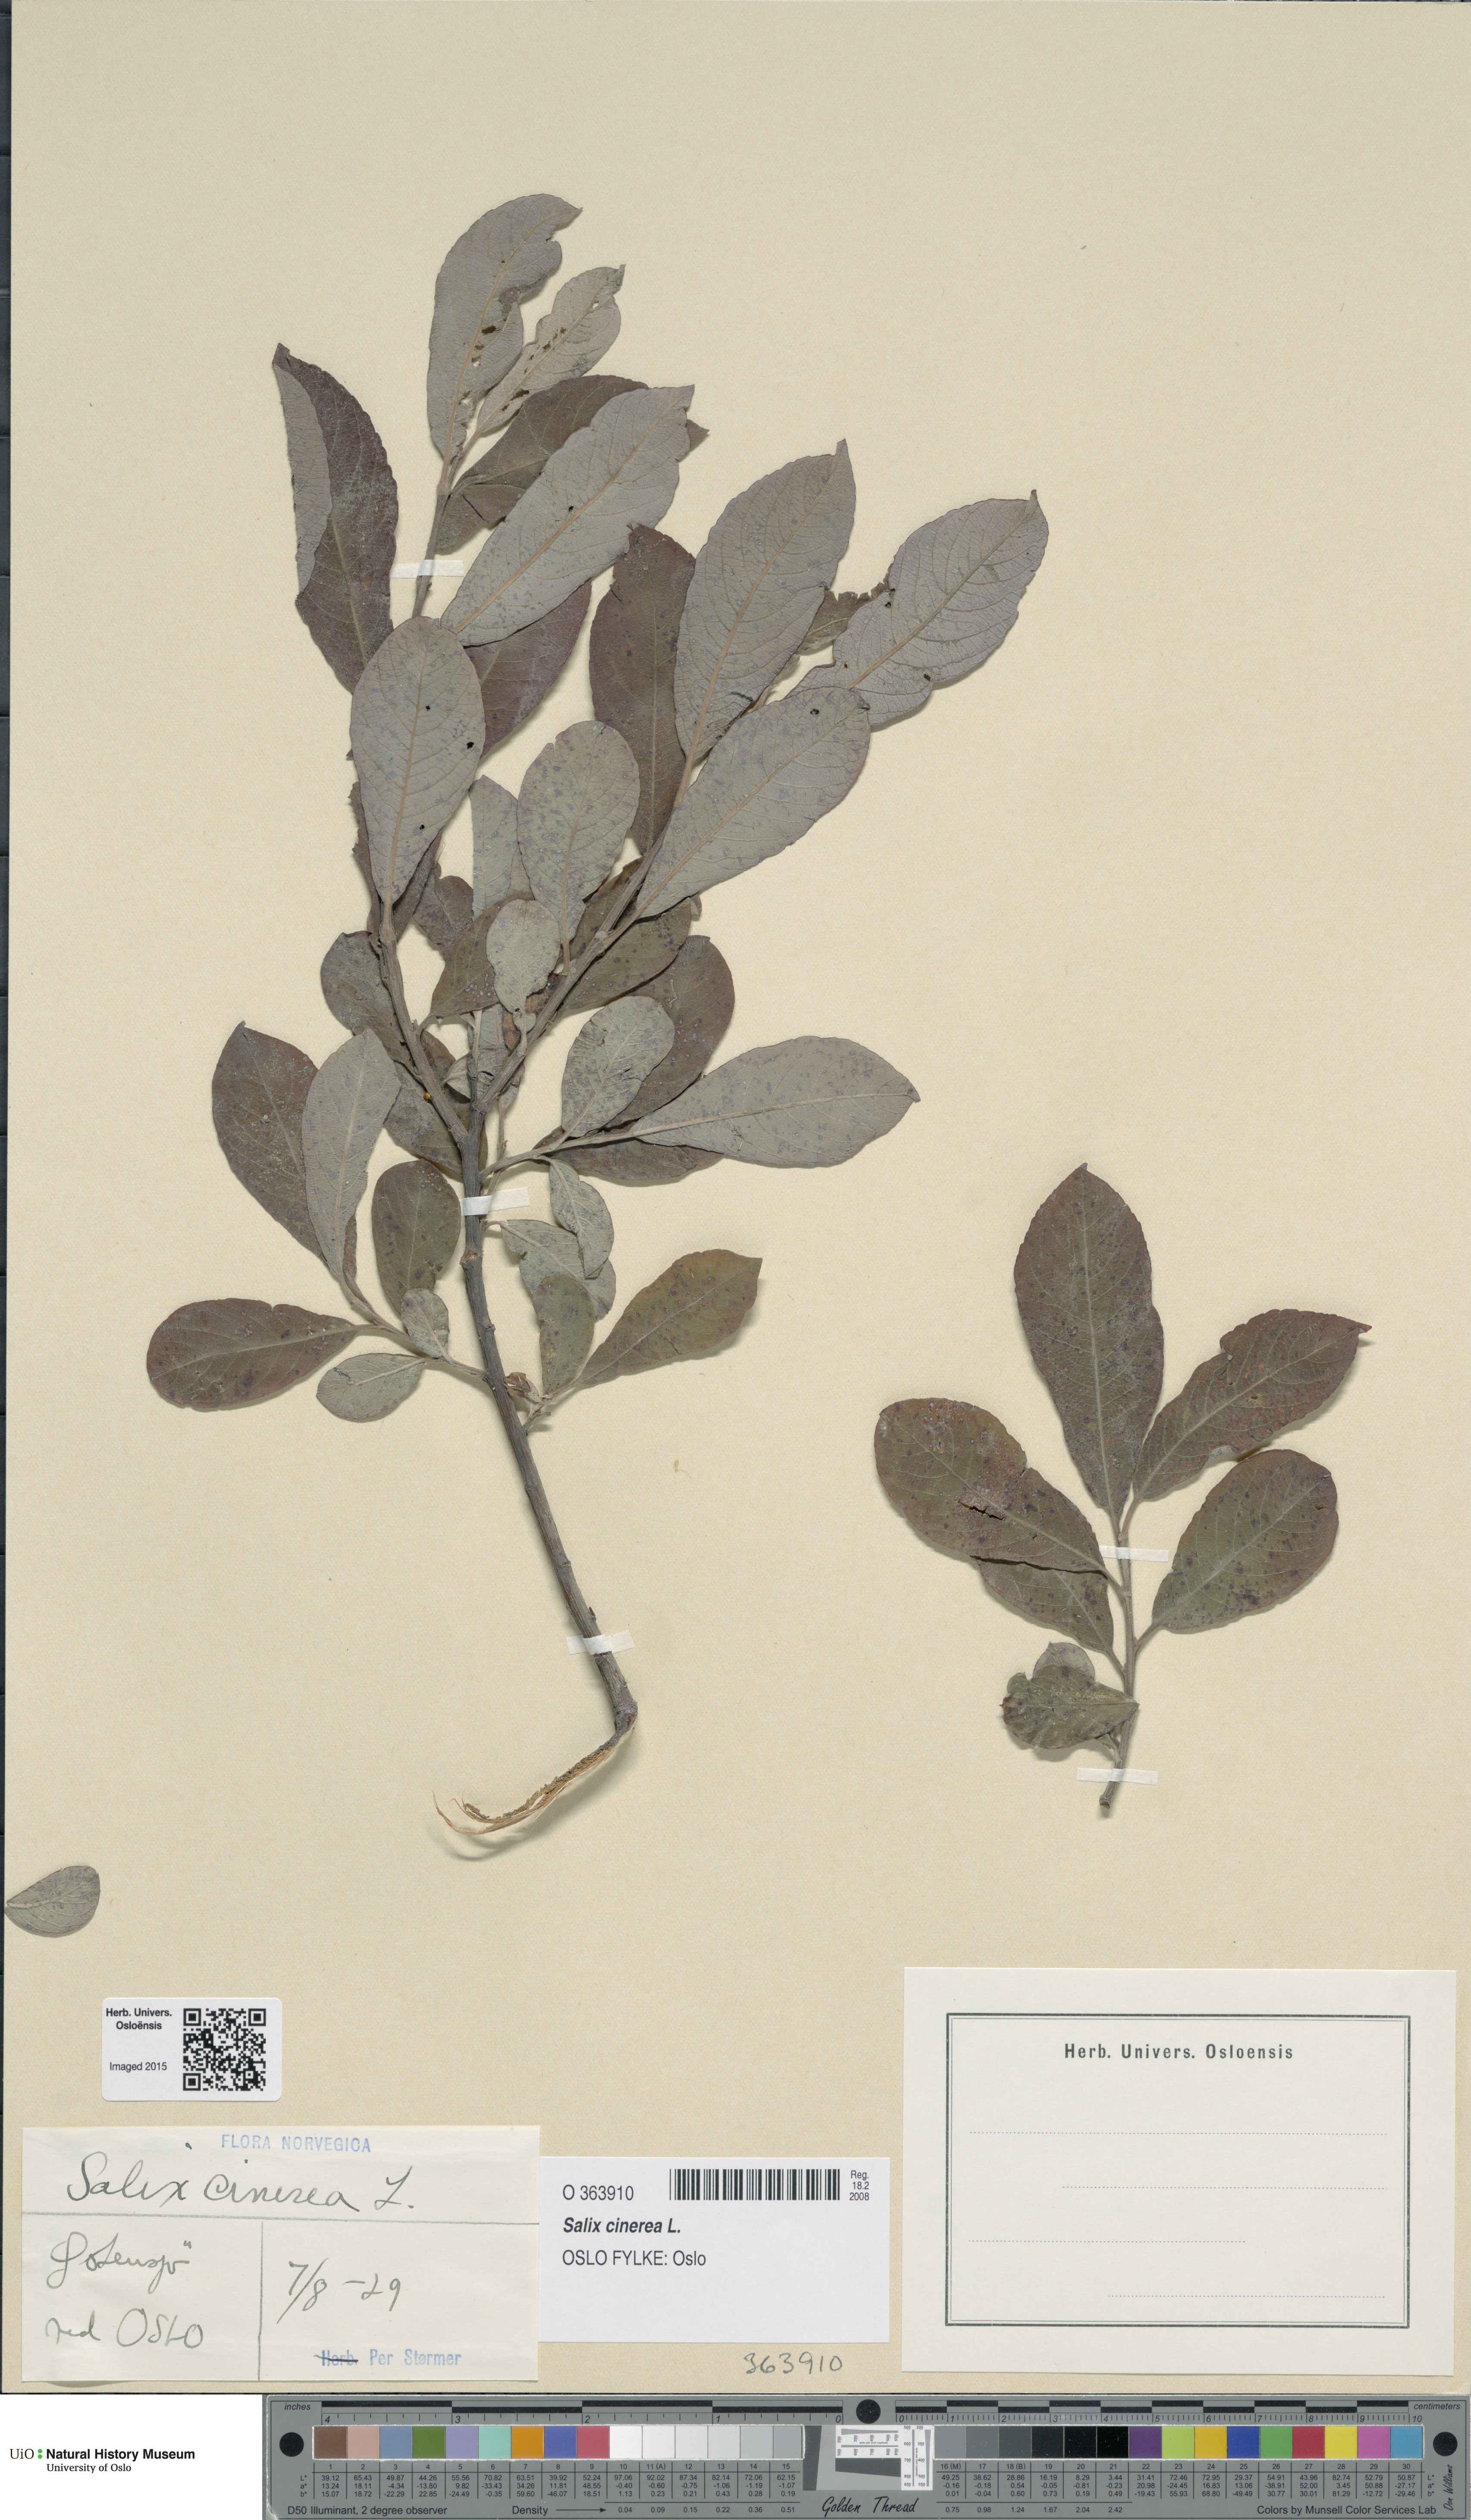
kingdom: Plantae
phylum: Tracheophyta
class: Magnoliopsida
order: Malpighiales
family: Salicaceae
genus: Salix
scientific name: Salix cinerea
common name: Common sallow
